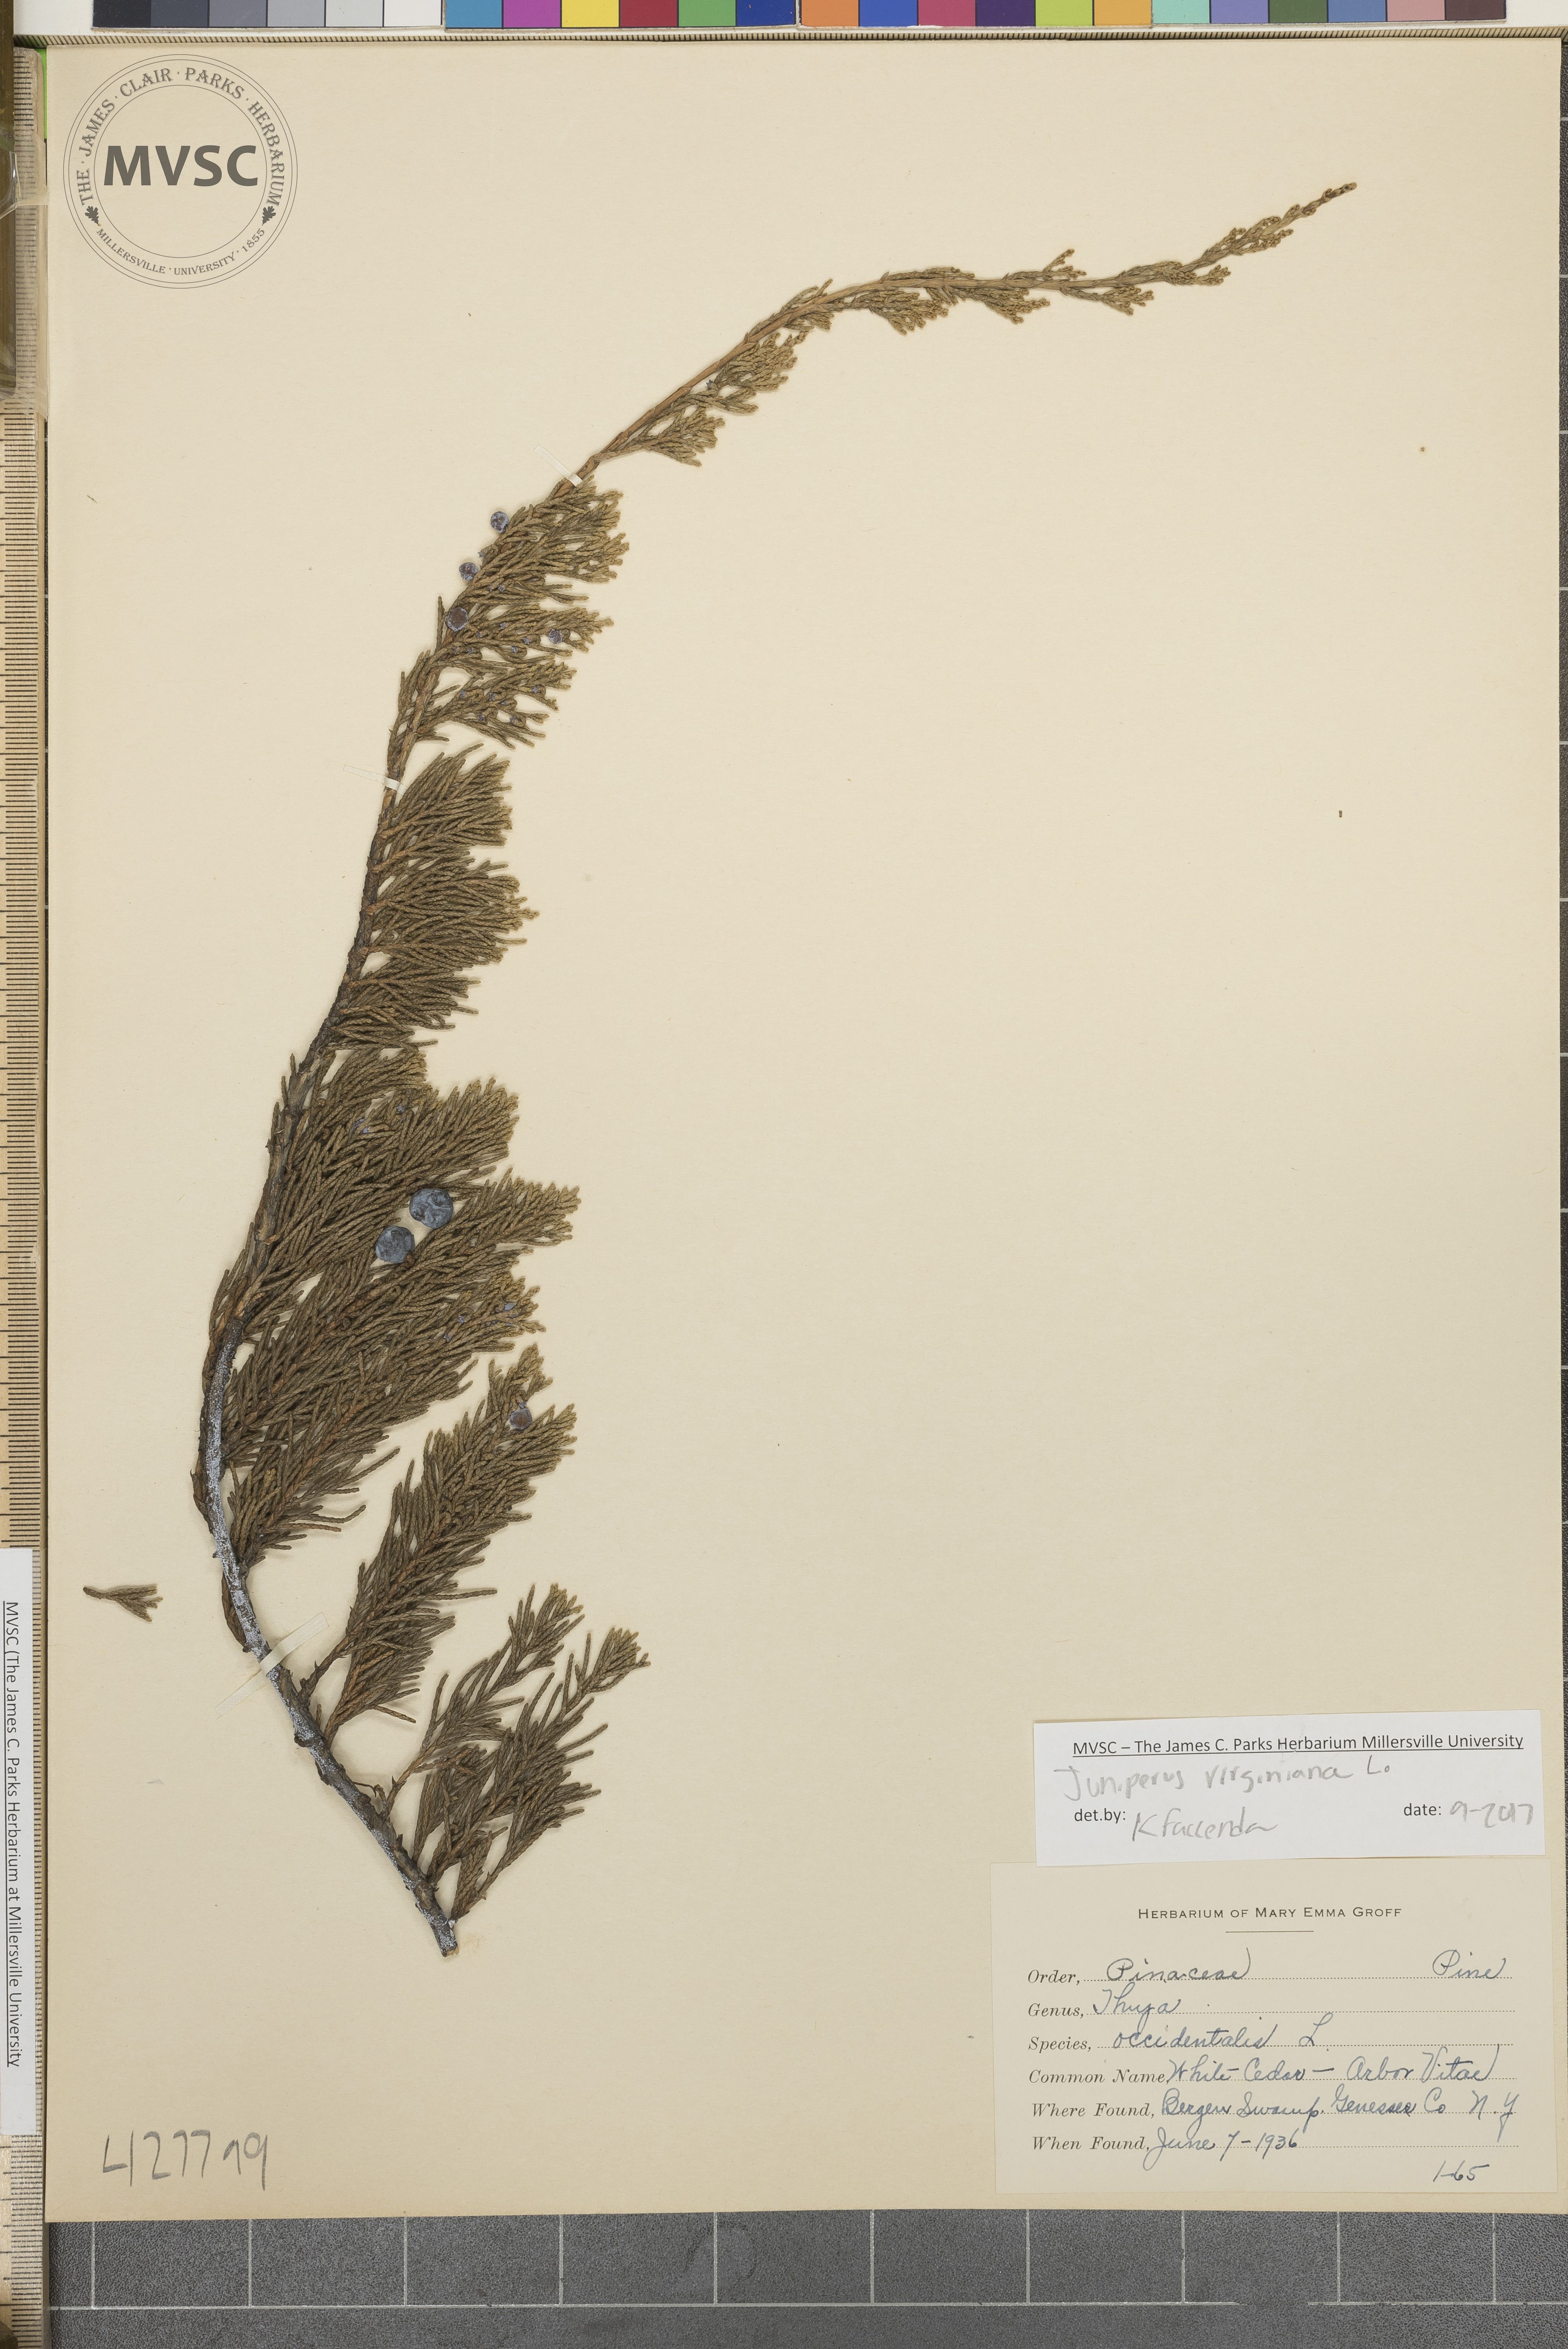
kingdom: Plantae
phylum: Tracheophyta
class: Pinopsida
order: Pinales
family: Cupressaceae
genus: Juniperus
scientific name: Juniperus virginiana
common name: Eastern redcedar
